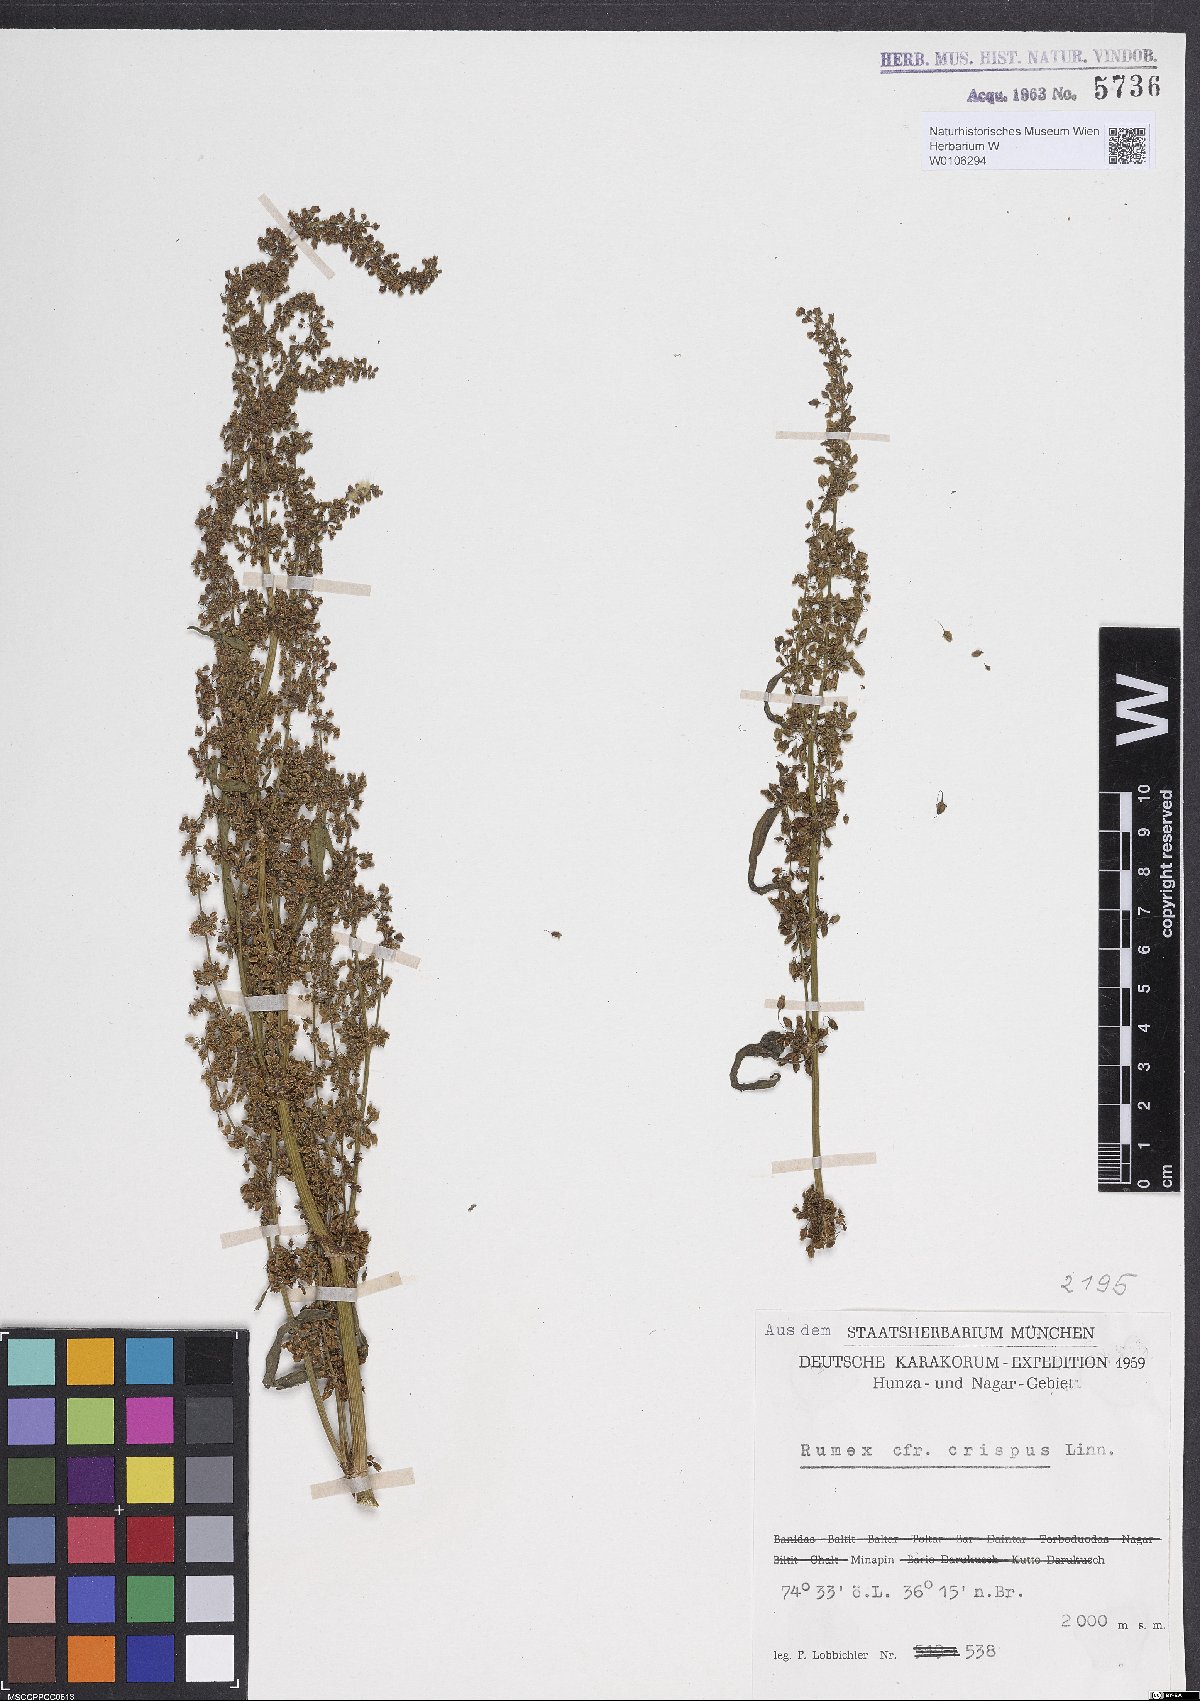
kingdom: Plantae
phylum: Tracheophyta
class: Magnoliopsida
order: Caryophyllales
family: Polygonaceae
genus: Rumex
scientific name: Rumex crispus
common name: Curled dock
